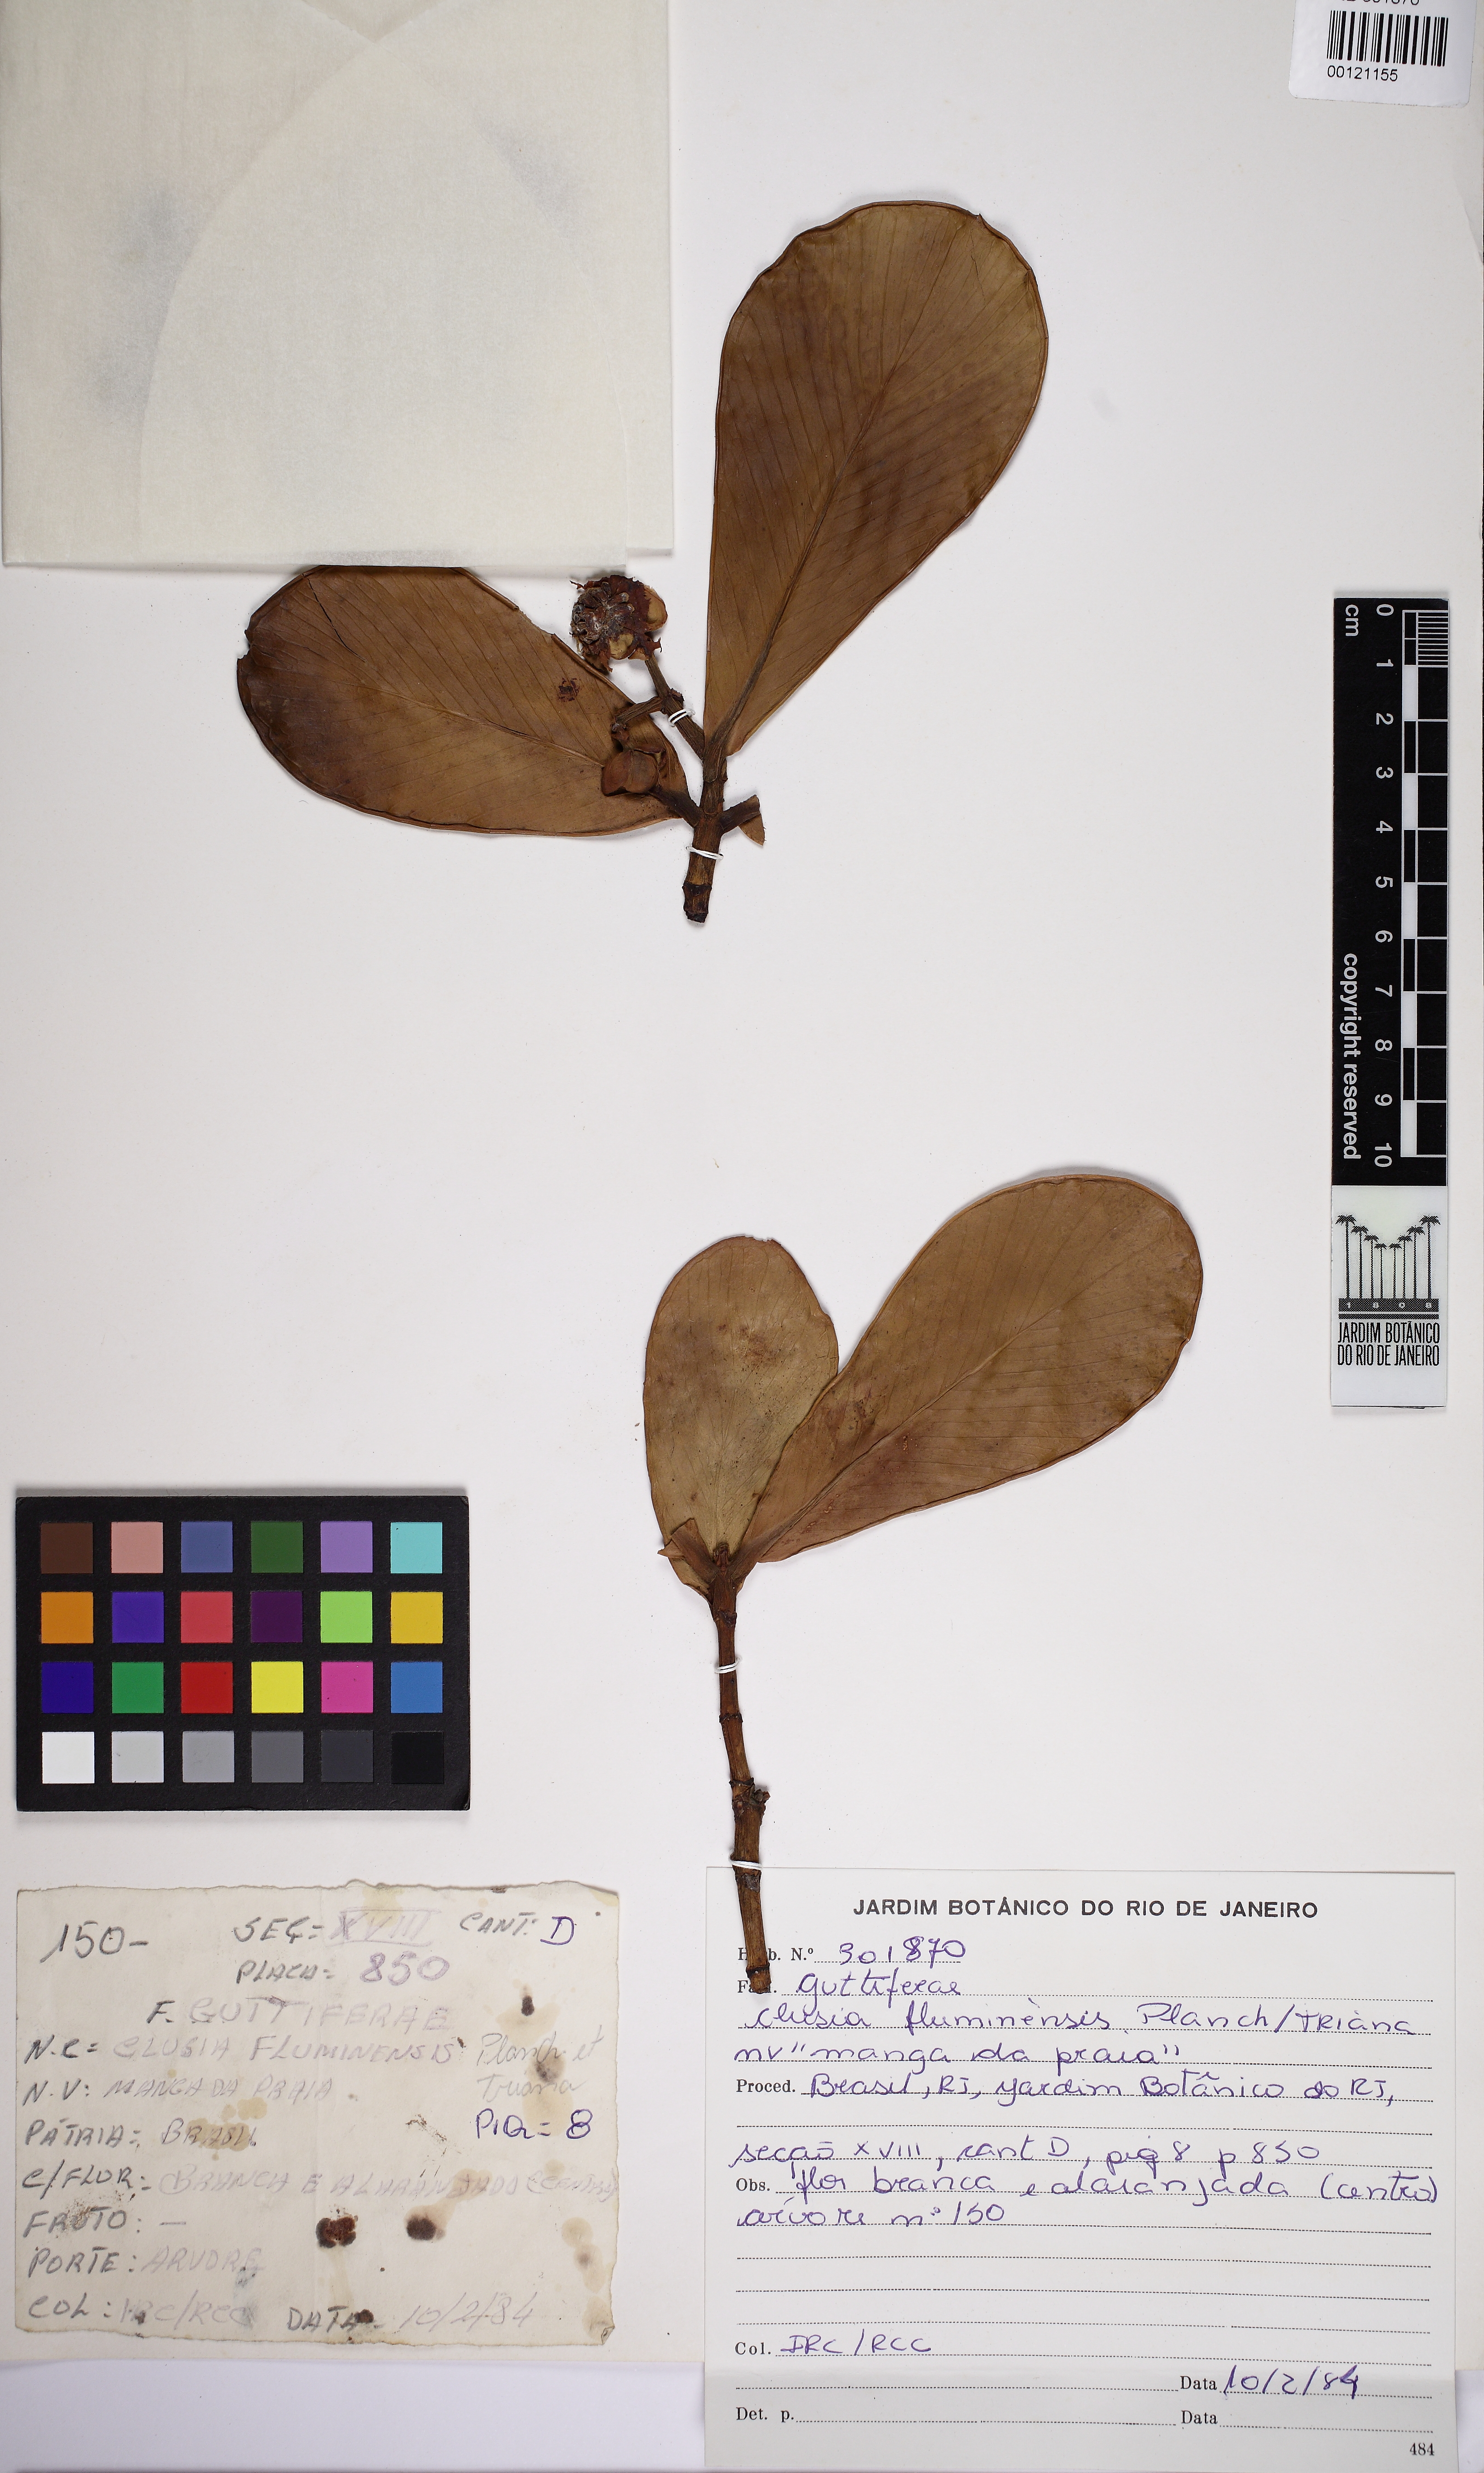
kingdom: Plantae
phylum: Tracheophyta
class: Magnoliopsida
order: Malpighiales
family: Clusiaceae
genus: Clusia
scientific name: Clusia fluminensis
